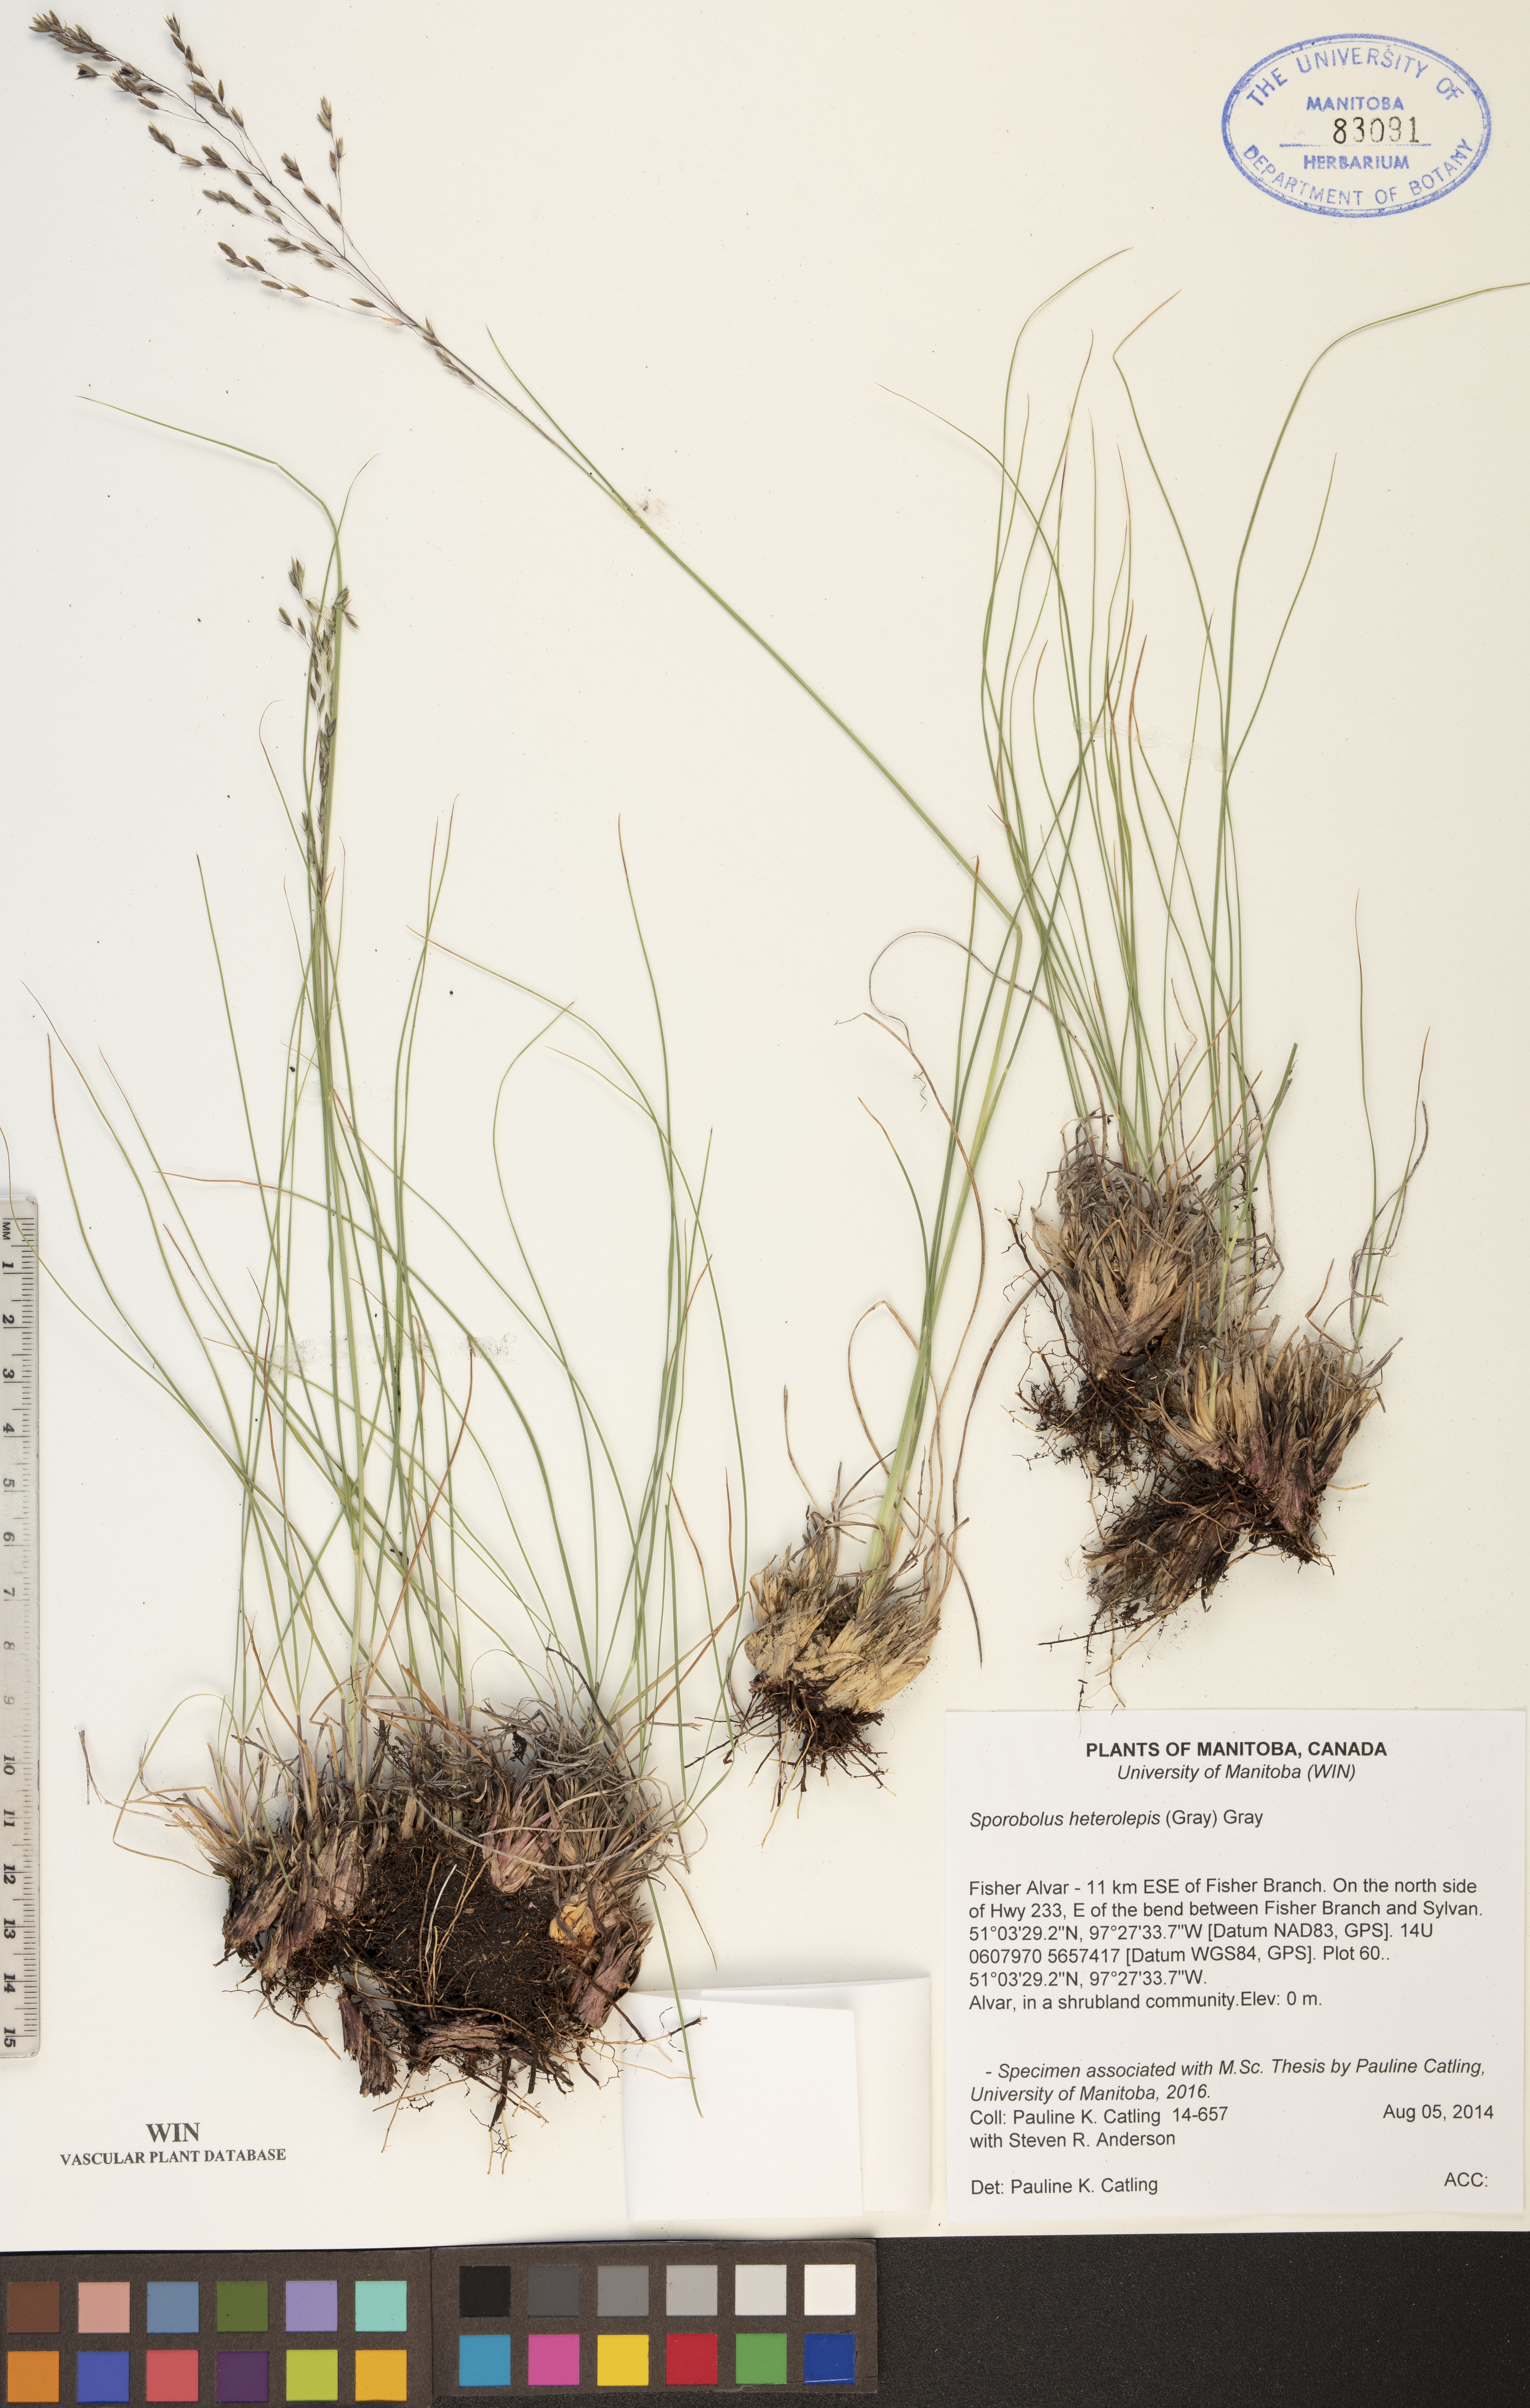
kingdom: Plantae
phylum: Tracheophyta
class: Liliopsida
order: Poales
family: Poaceae
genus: Sporobolus
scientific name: Sporobolus heterolepis
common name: Prairie dropseed
